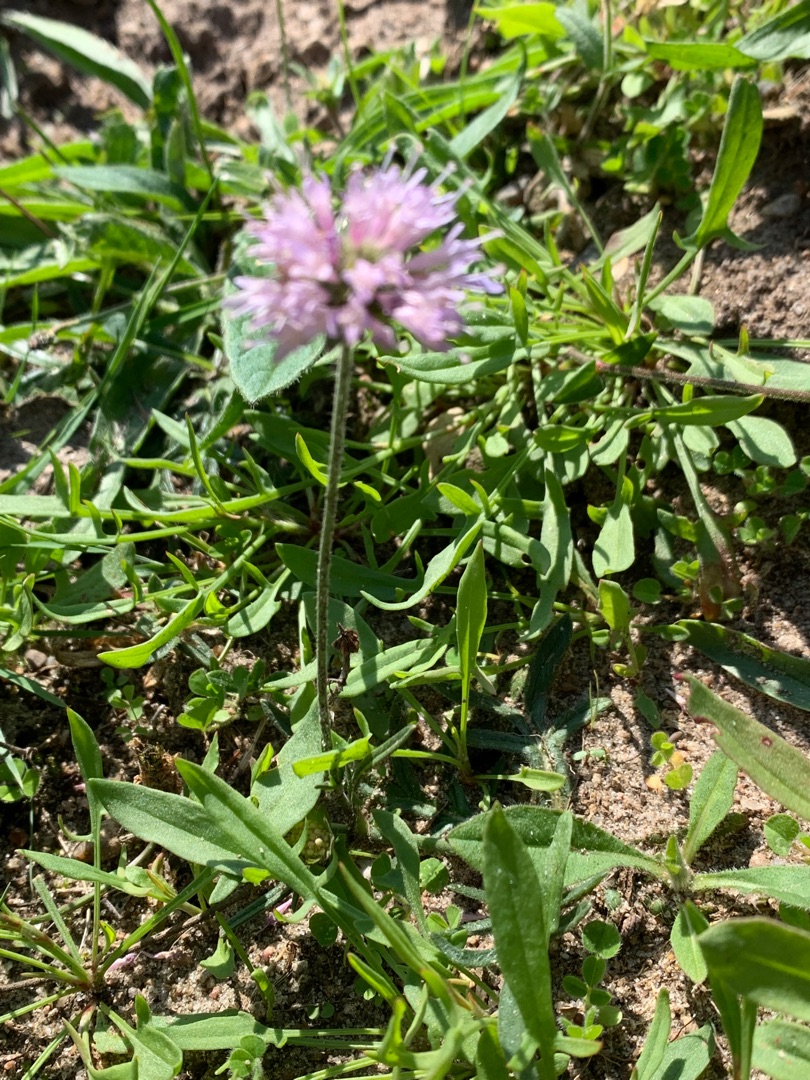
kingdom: Plantae
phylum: Tracheophyta
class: Magnoliopsida
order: Dipsacales
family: Caprifoliaceae
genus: Knautia
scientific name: Knautia arvensis
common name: Blåhat
